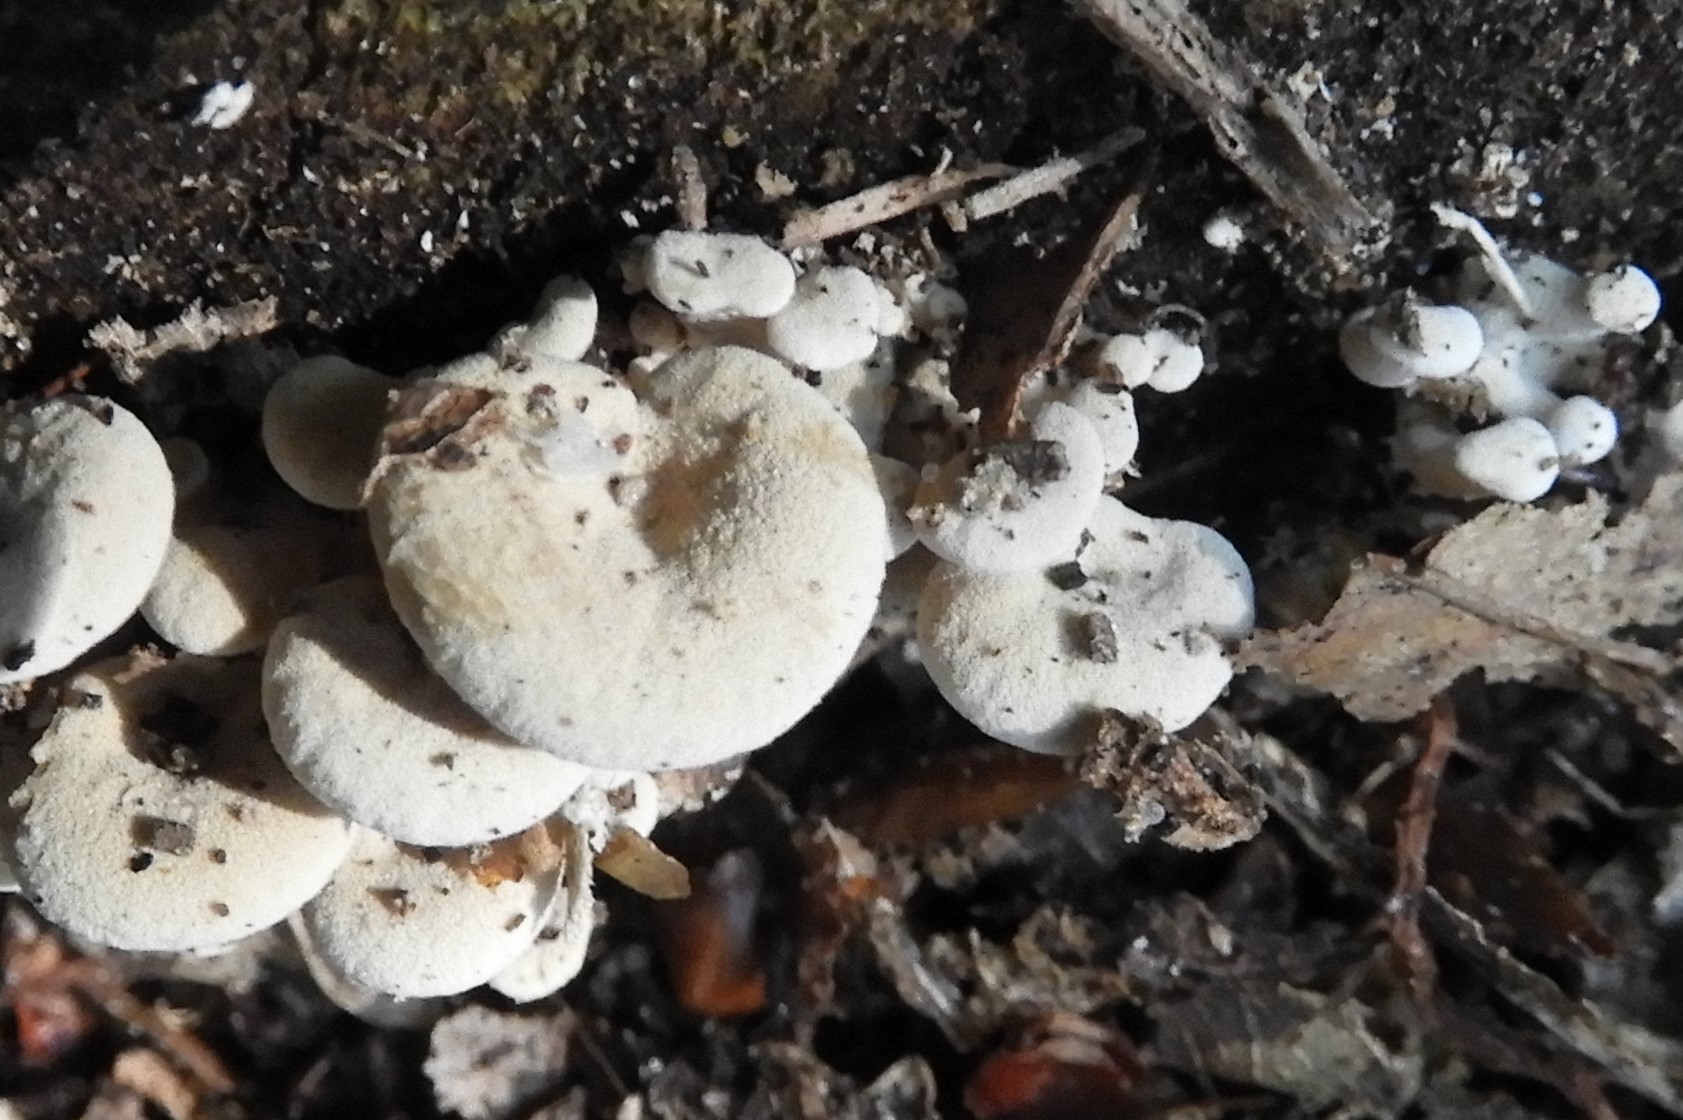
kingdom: Fungi
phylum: Basidiomycota
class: Agaricomycetes
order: Agaricales
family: Mycenaceae
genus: Panellus
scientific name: Panellus stipticus
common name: kliddet epaulethat
